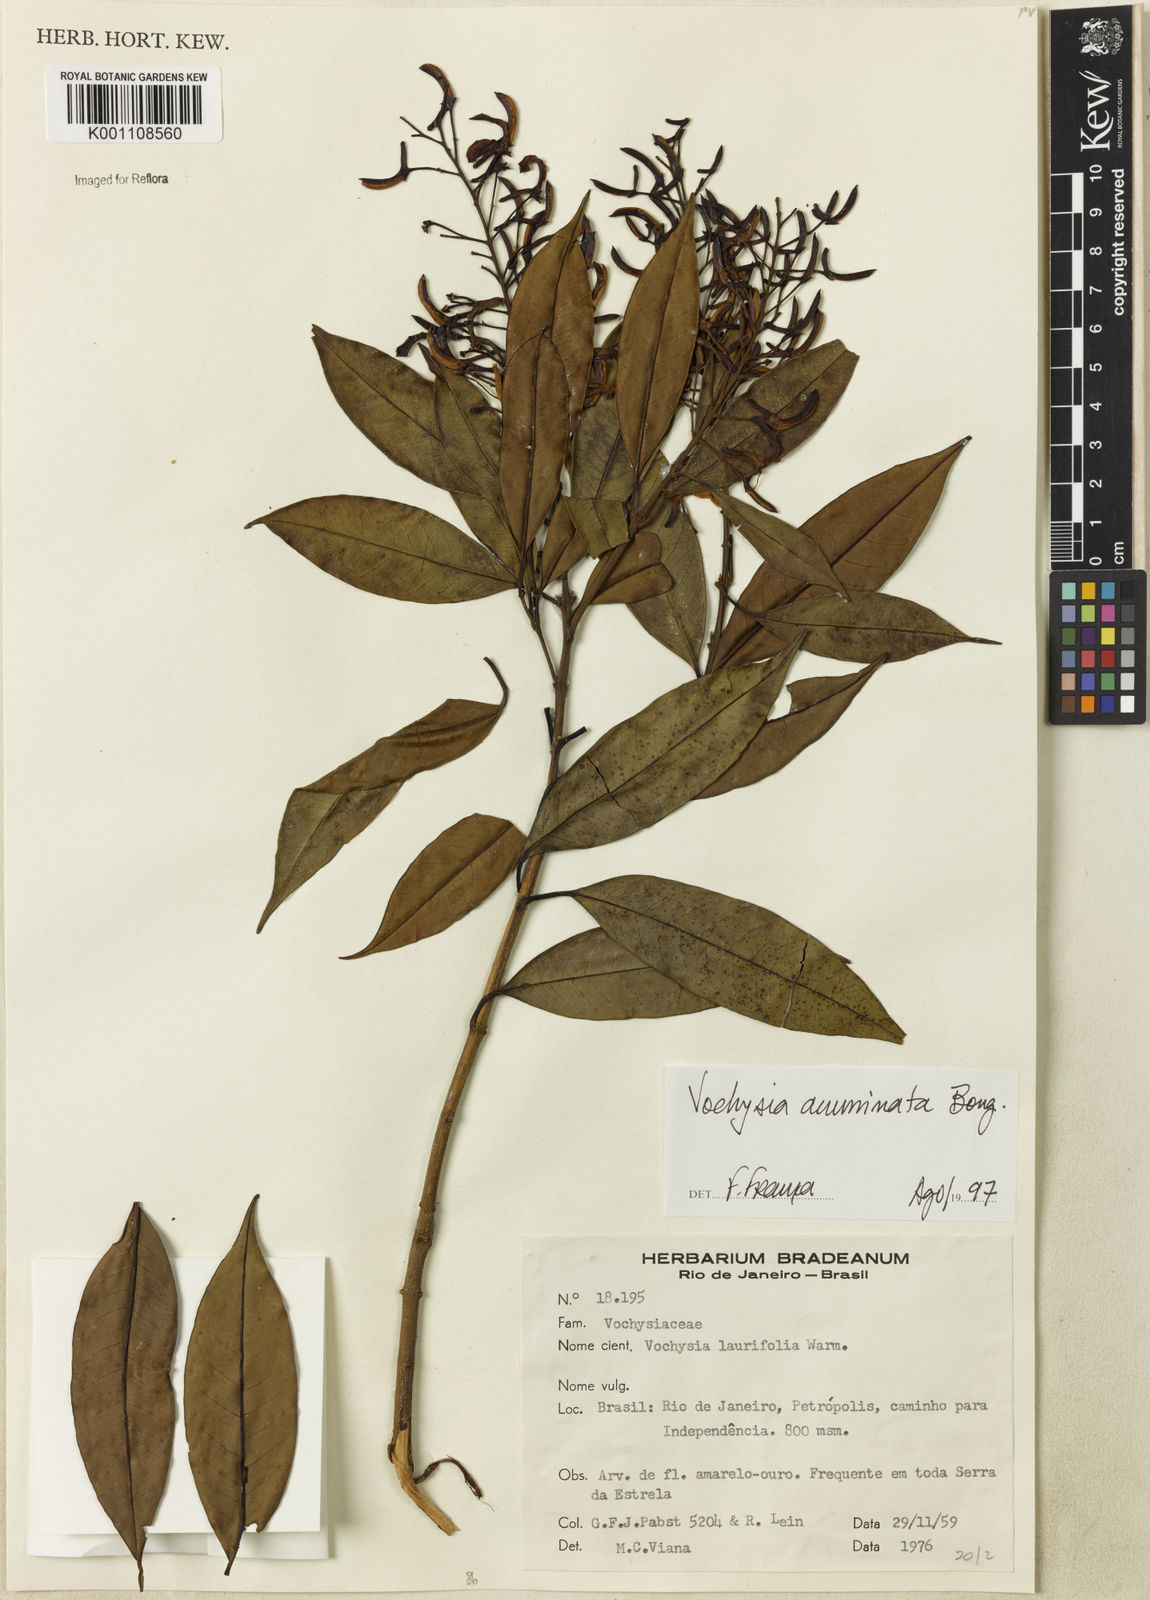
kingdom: Plantae
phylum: Tracheophyta
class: Magnoliopsida
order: Myrtales
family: Vochysiaceae
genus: Vochysia
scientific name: Vochysia acuminata
